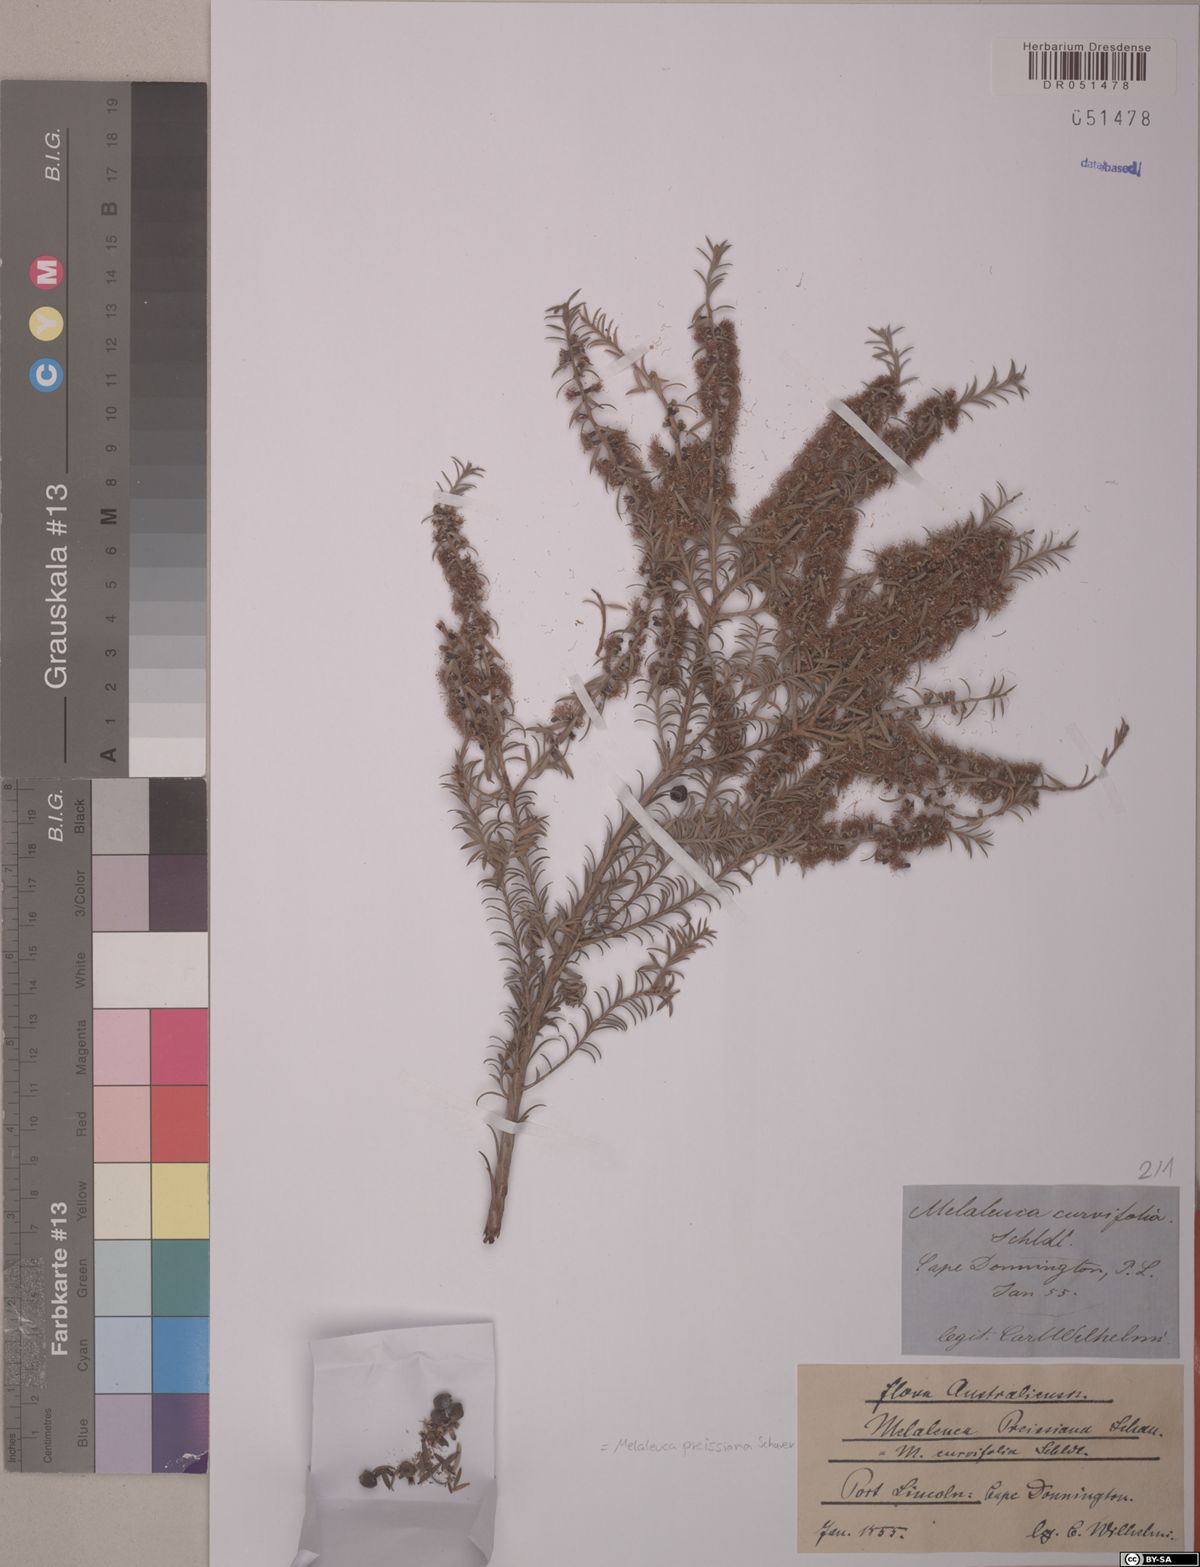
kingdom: Plantae
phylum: Tracheophyta
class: Magnoliopsida
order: Myrtales
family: Myrtaceae
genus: Melaleuca
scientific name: Melaleuca preissiana
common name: Preiss's paperbark
